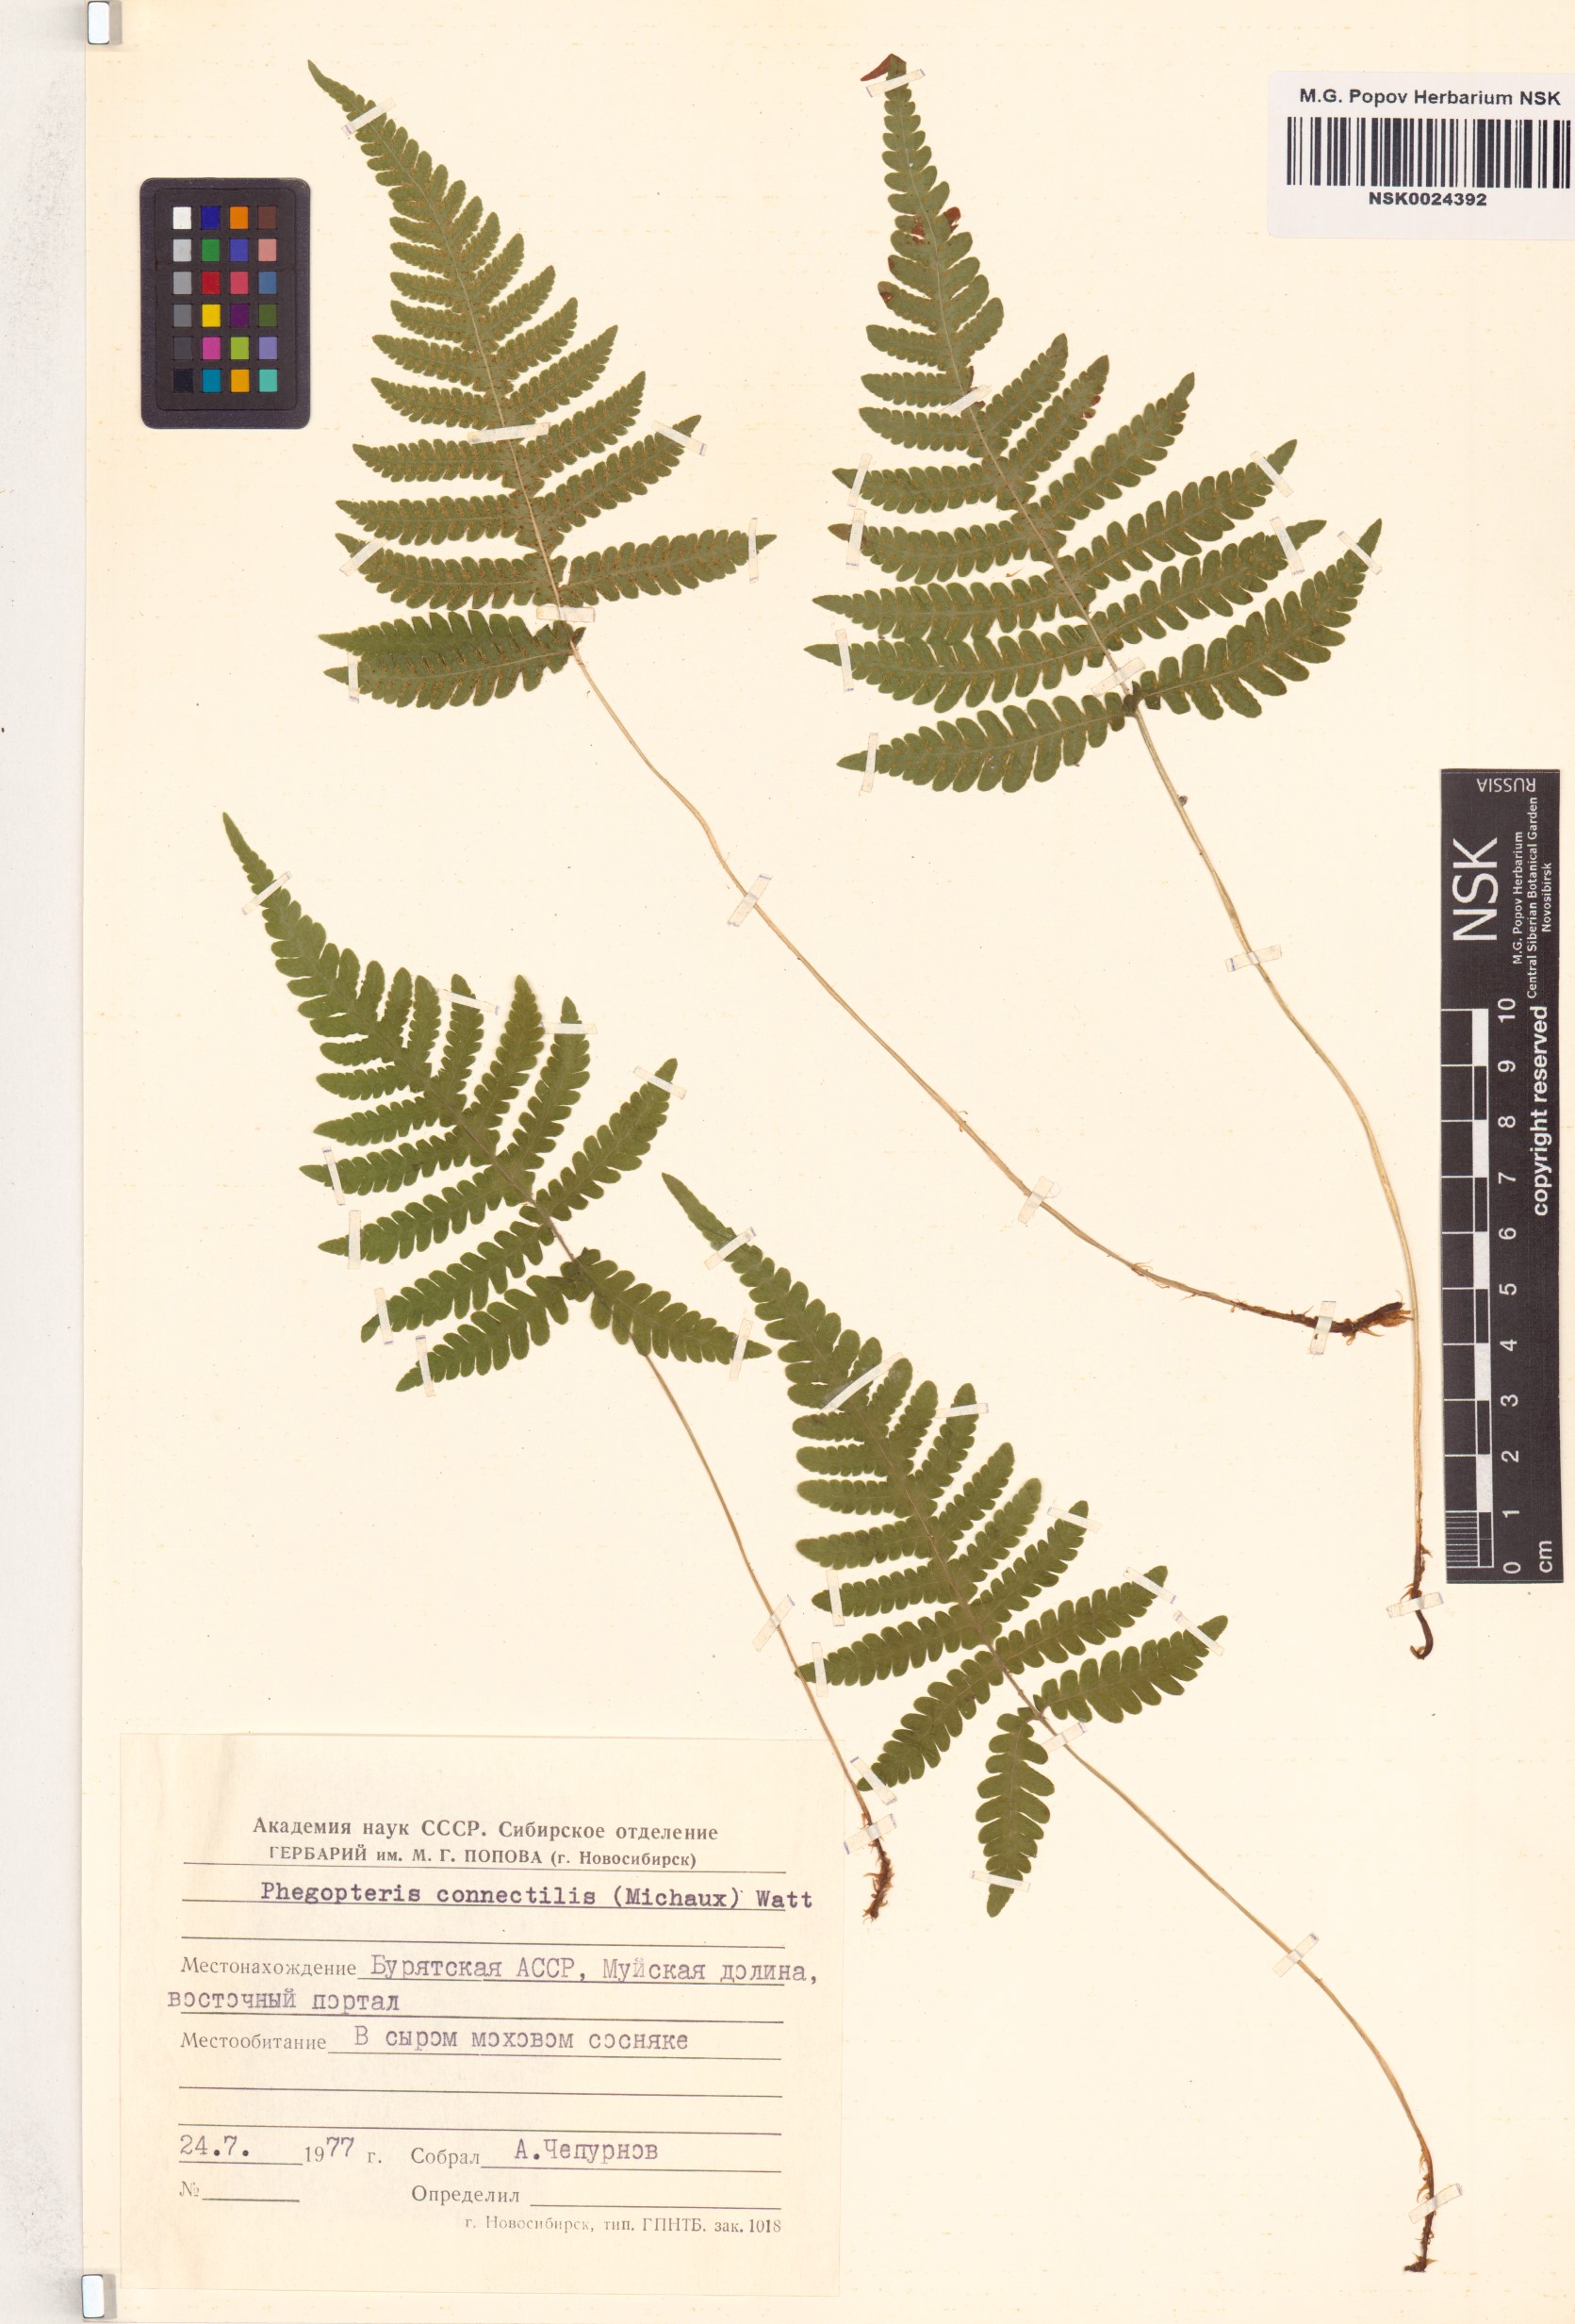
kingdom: Plantae
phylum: Tracheophyta
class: Polypodiopsida
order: Polypodiales
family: Thelypteridaceae
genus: Phegopteris
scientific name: Phegopteris connectilis
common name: Beech fern
